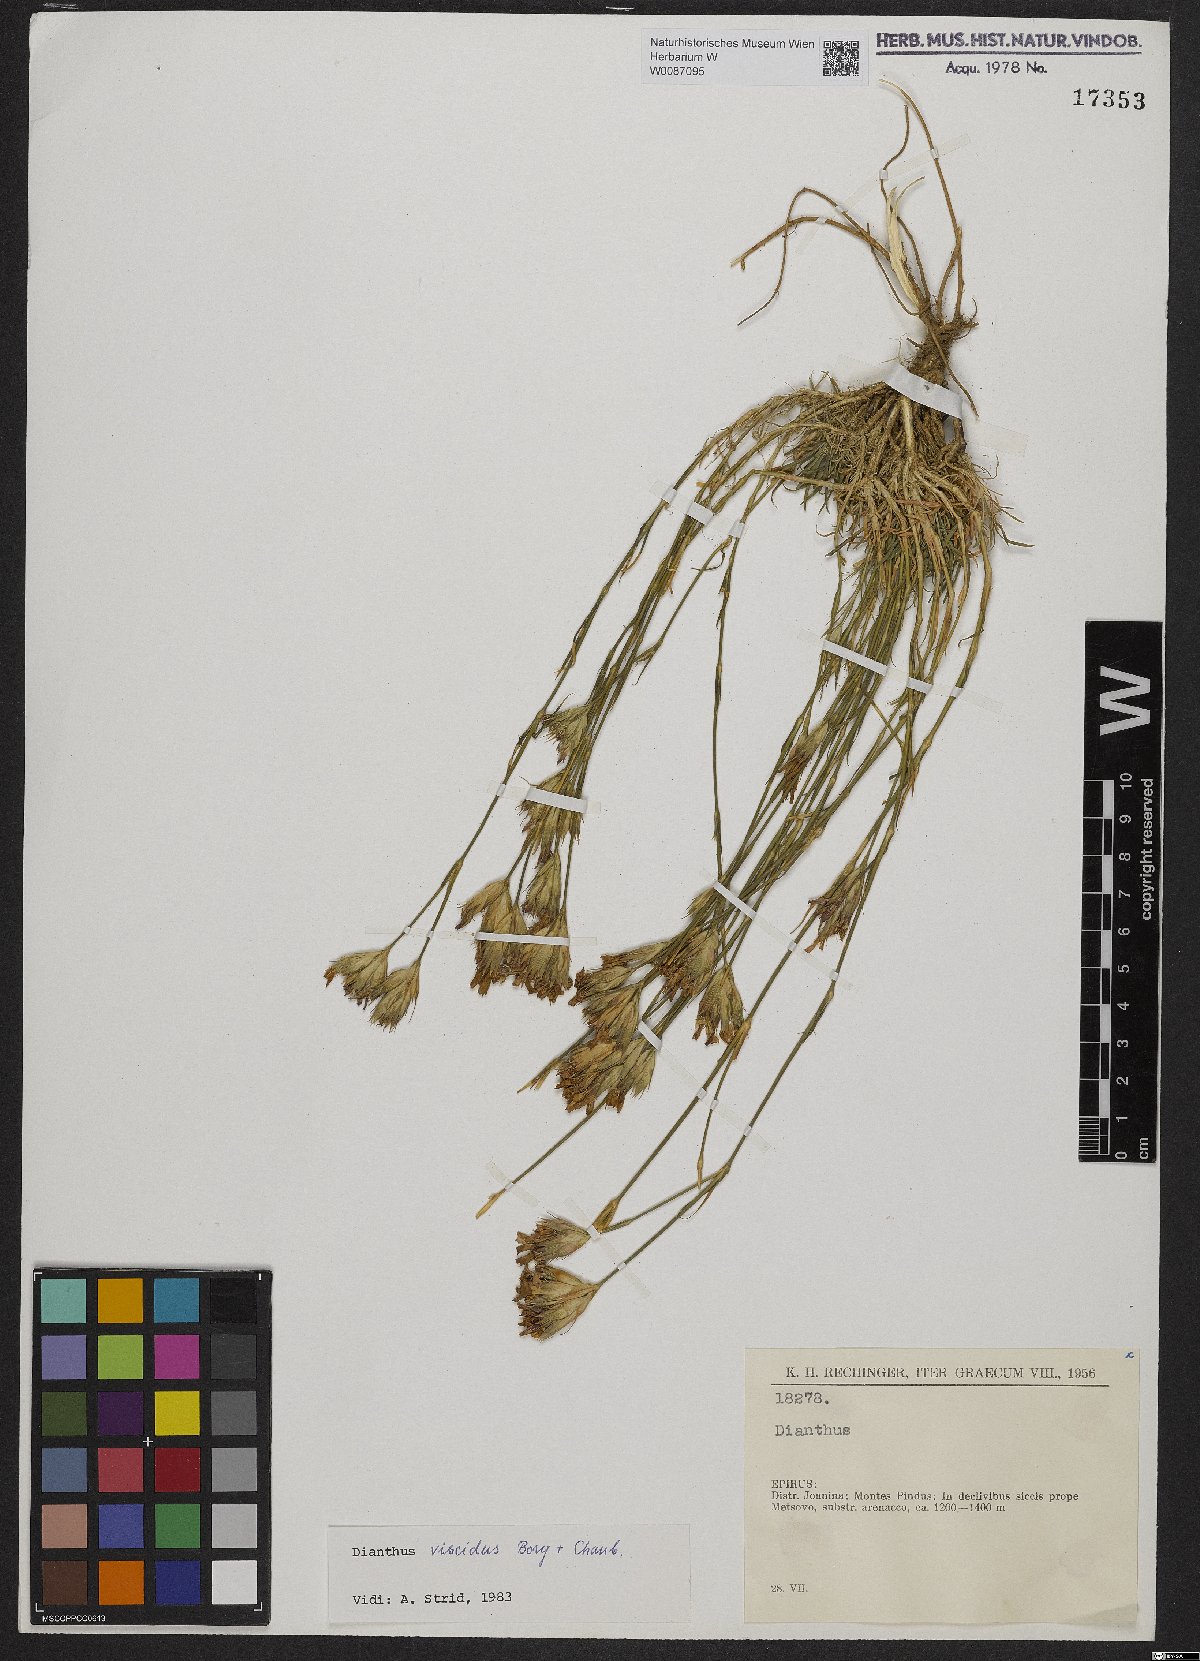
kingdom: Plantae
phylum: Tracheophyta
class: Magnoliopsida
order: Caryophyllales
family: Caryophyllaceae
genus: Dianthus
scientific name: Dianthus viscidus
